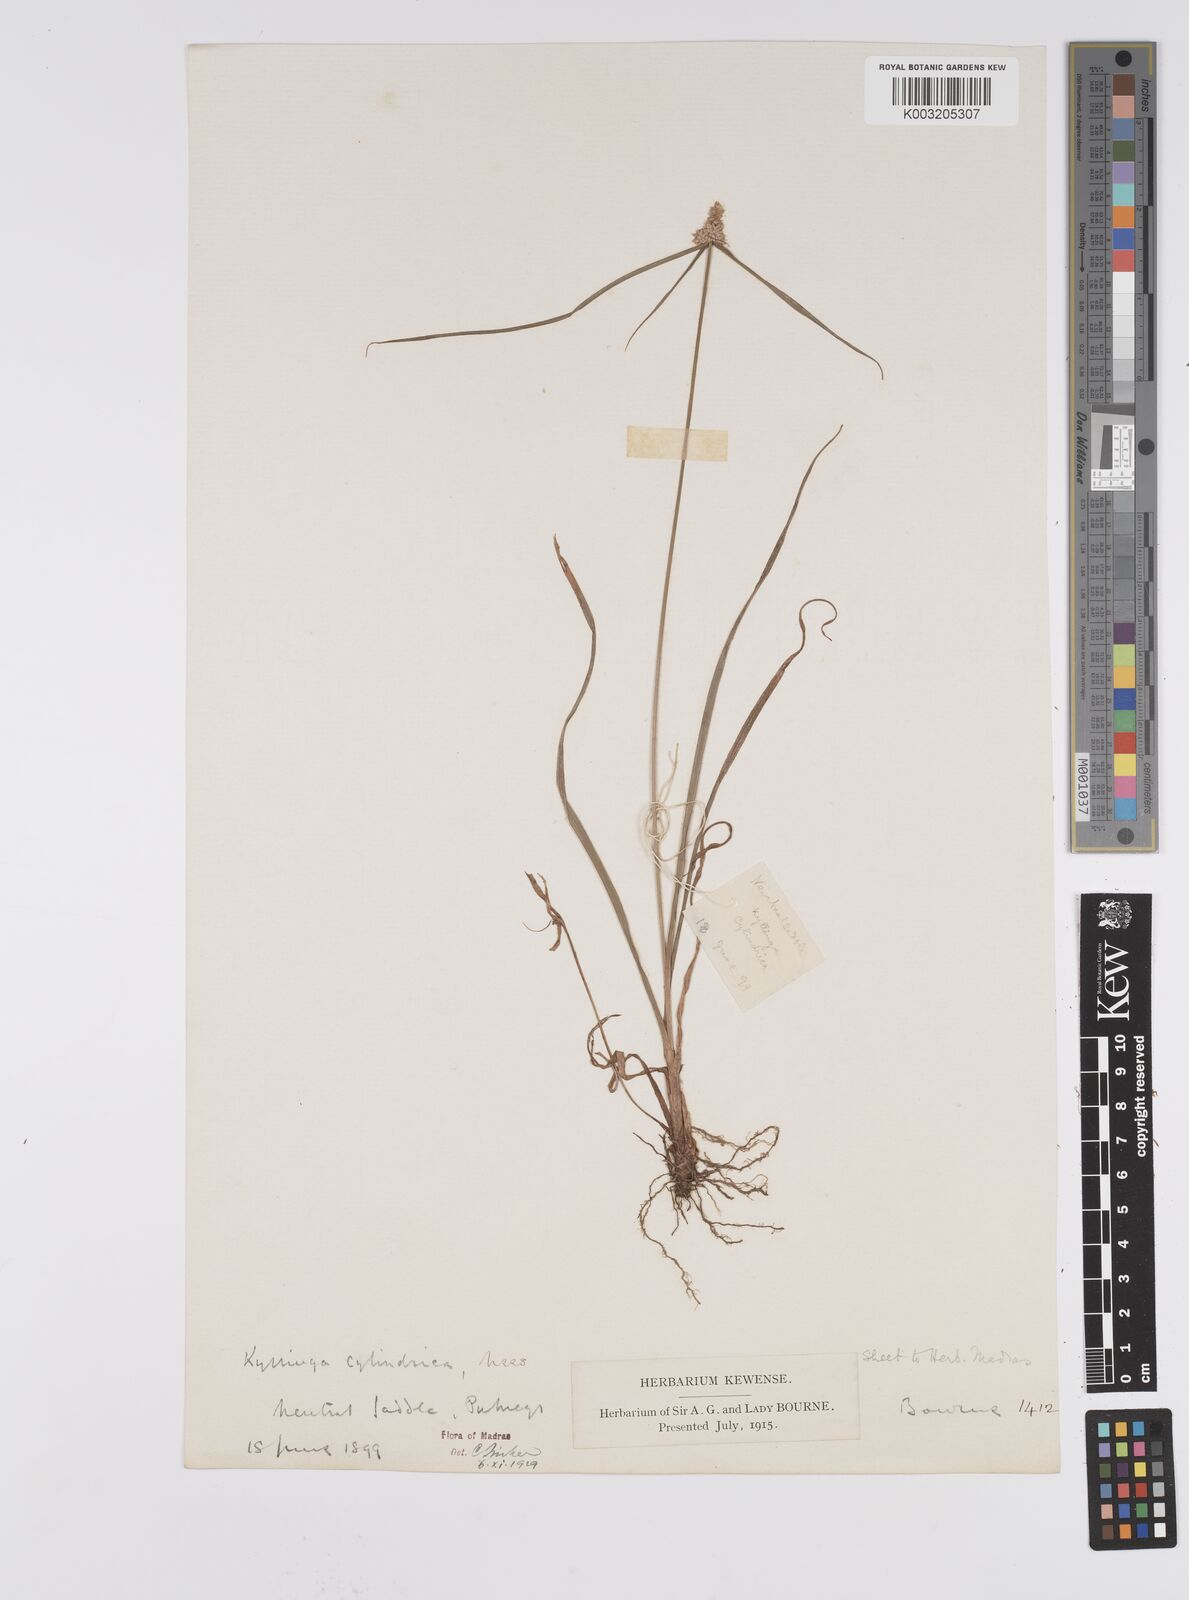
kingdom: Plantae
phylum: Tracheophyta
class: Liliopsida
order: Poales
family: Cyperaceae
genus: Cyperus
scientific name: Cyperus
